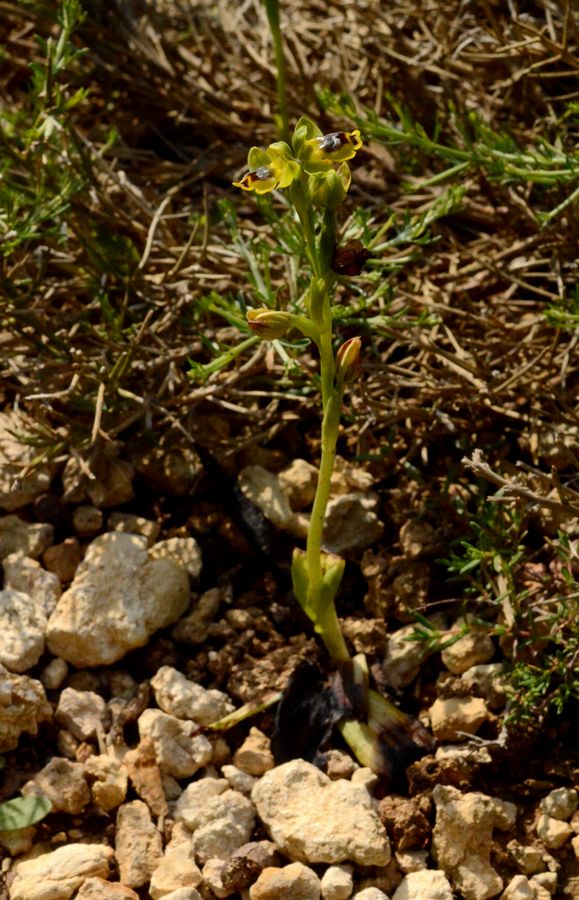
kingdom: Plantae
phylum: Tracheophyta
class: Liliopsida
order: Asparagales
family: Orchidaceae
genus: Ophrys
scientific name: Ophrys lutea
